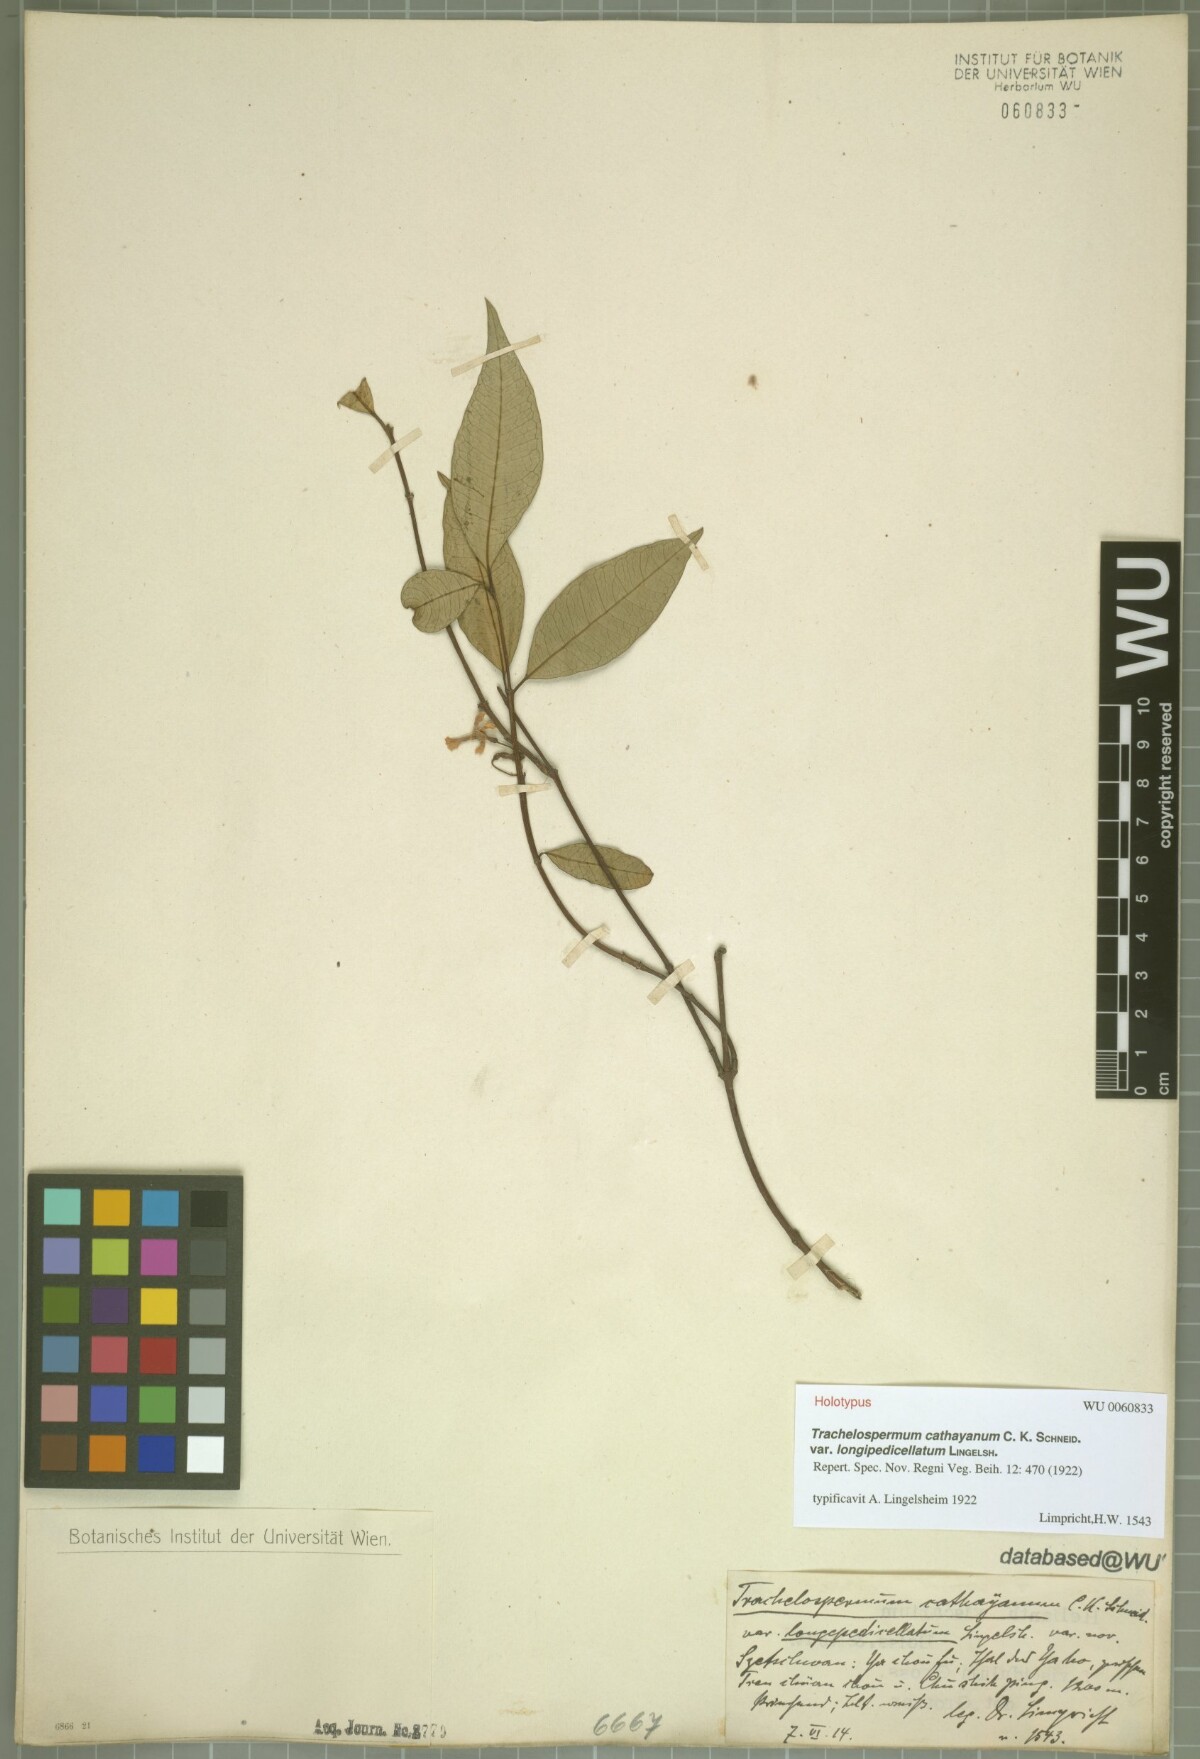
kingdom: Plantae
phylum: Tracheophyta
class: Magnoliopsida
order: Gentianales
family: Apocynaceae
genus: Trachelospermum
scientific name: Trachelospermum bodinieri
